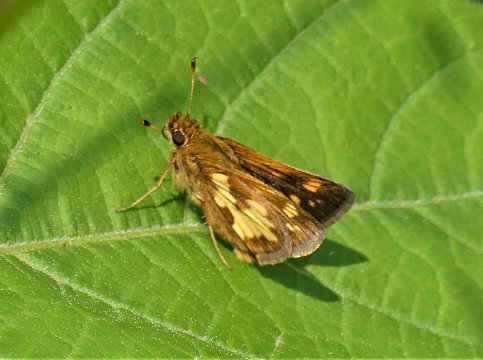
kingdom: Animalia
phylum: Arthropoda
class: Insecta
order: Lepidoptera
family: Hesperiidae
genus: Polites
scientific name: Polites coras
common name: Peck's Skipper
